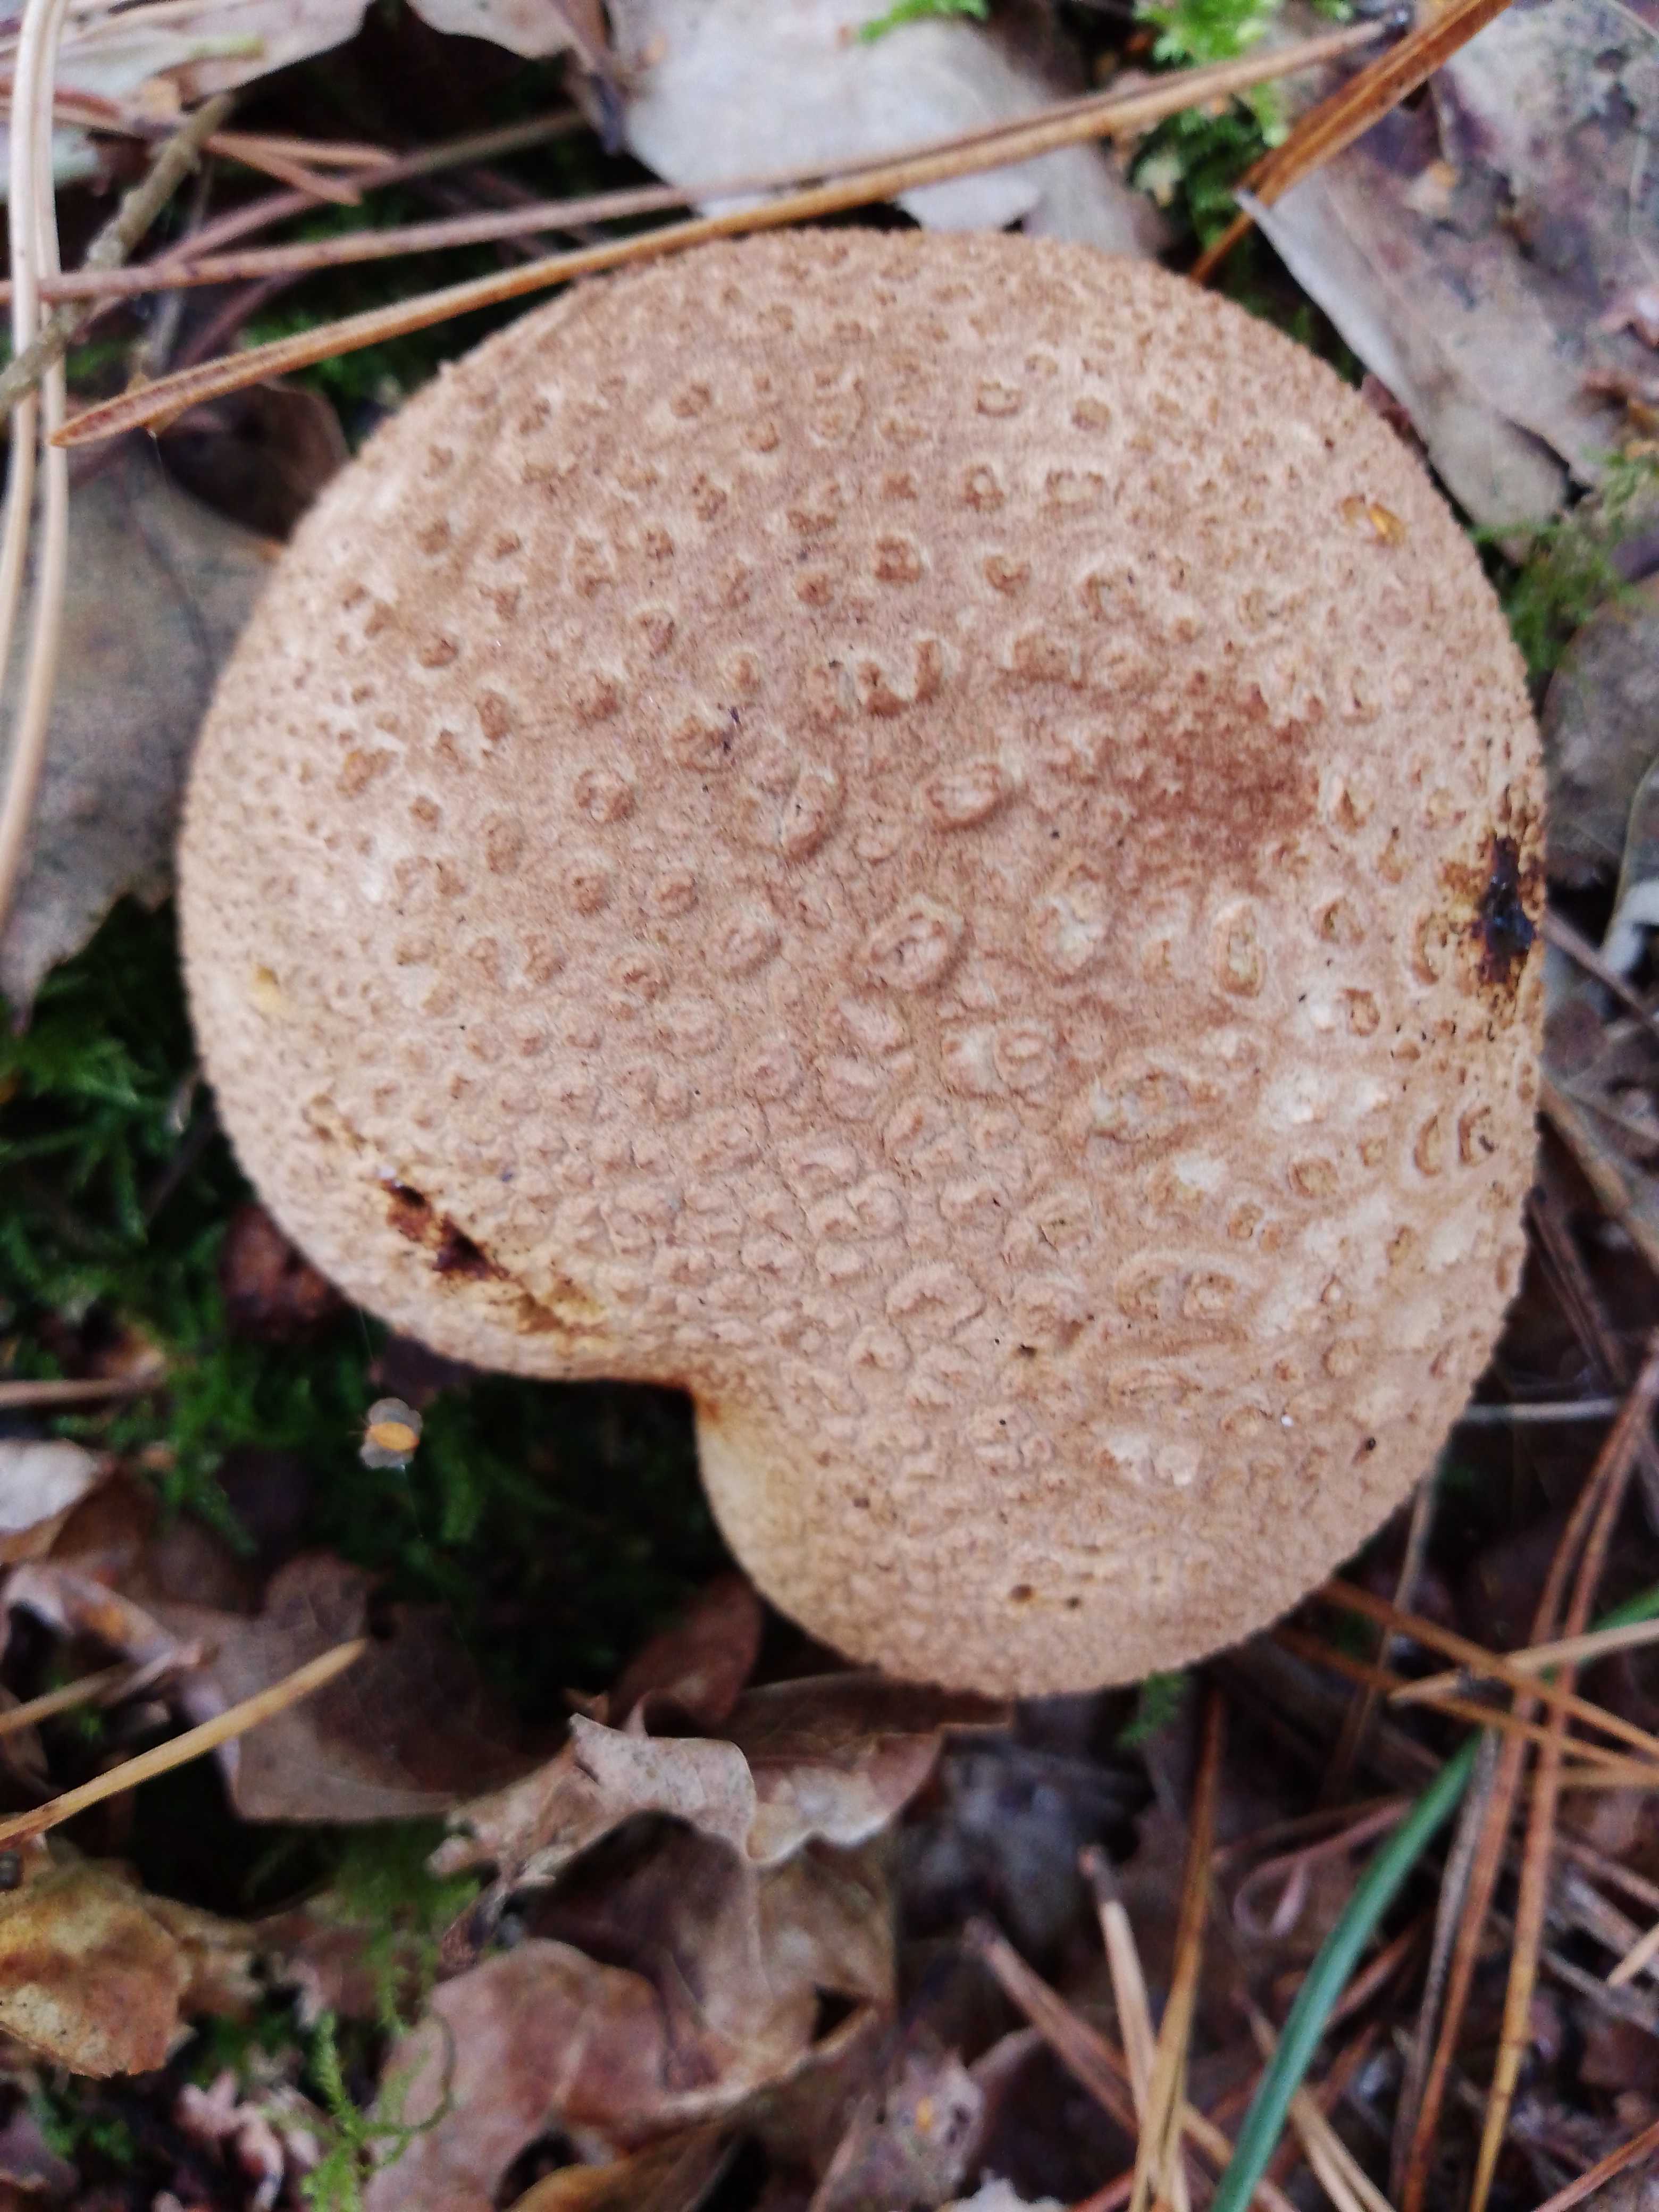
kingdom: Fungi
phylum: Basidiomycota
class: Agaricomycetes
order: Boletales
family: Sclerodermataceae
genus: Scleroderma
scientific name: Scleroderma citrinum
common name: almindelig bruskbold
